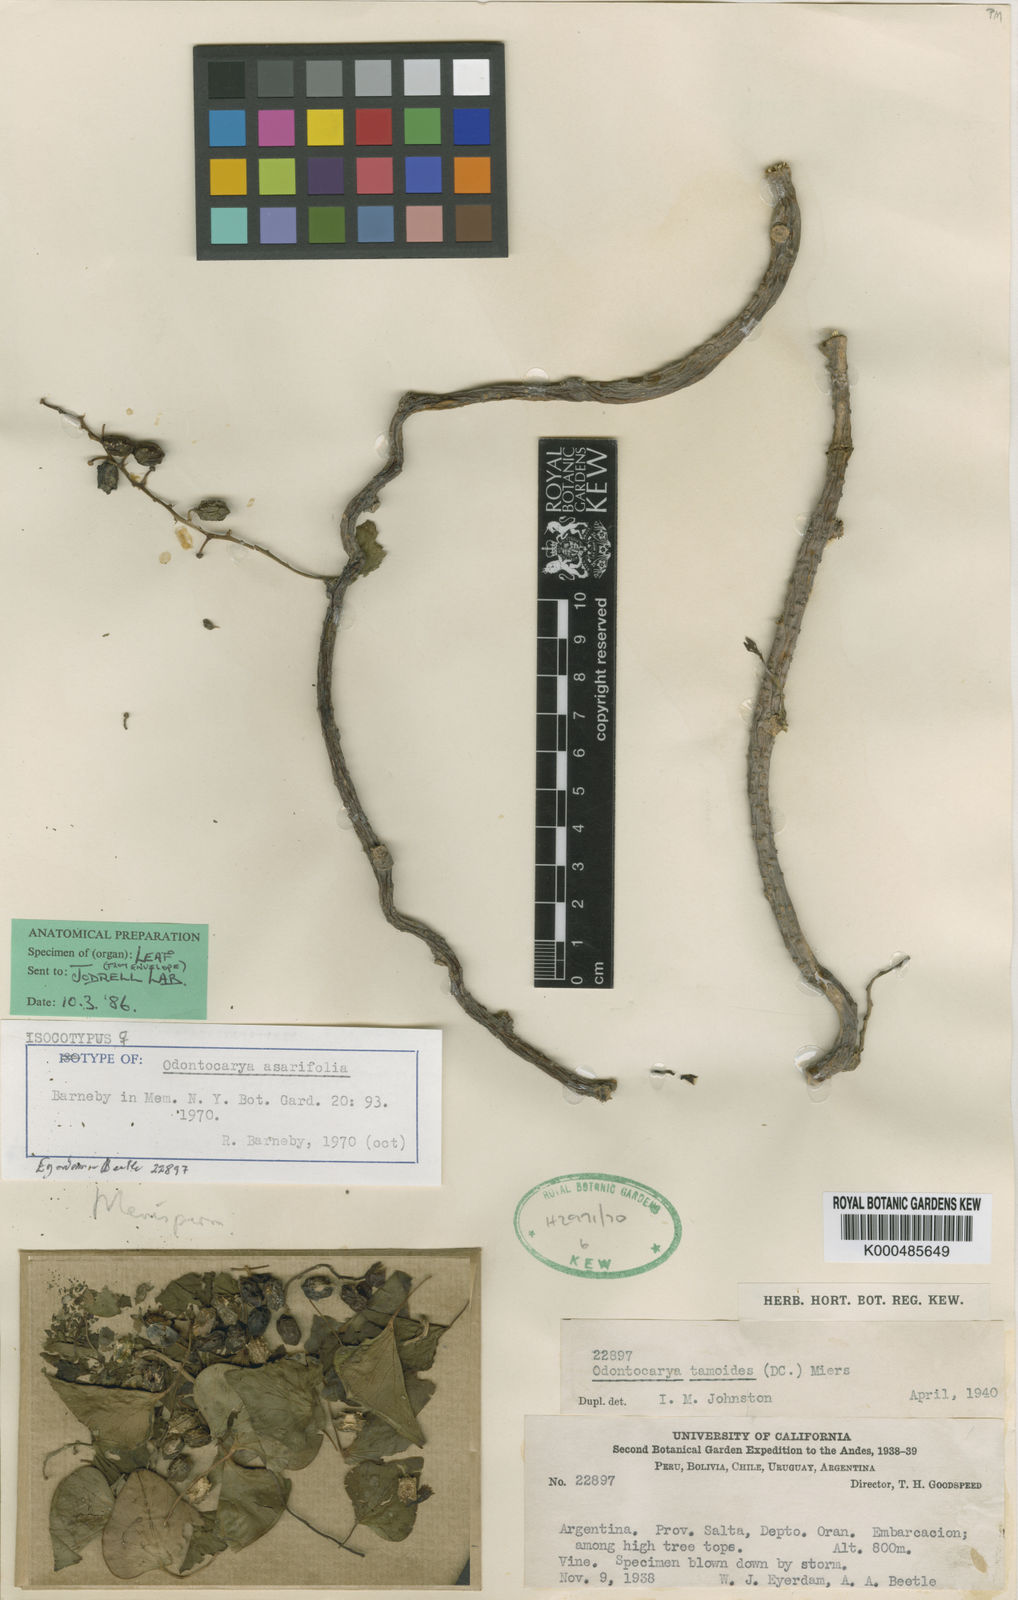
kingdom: Plantae
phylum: Tracheophyta
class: Magnoliopsida
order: Ranunculales
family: Menispermaceae
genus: Odontocarya
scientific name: Odontocarya asarifolia
